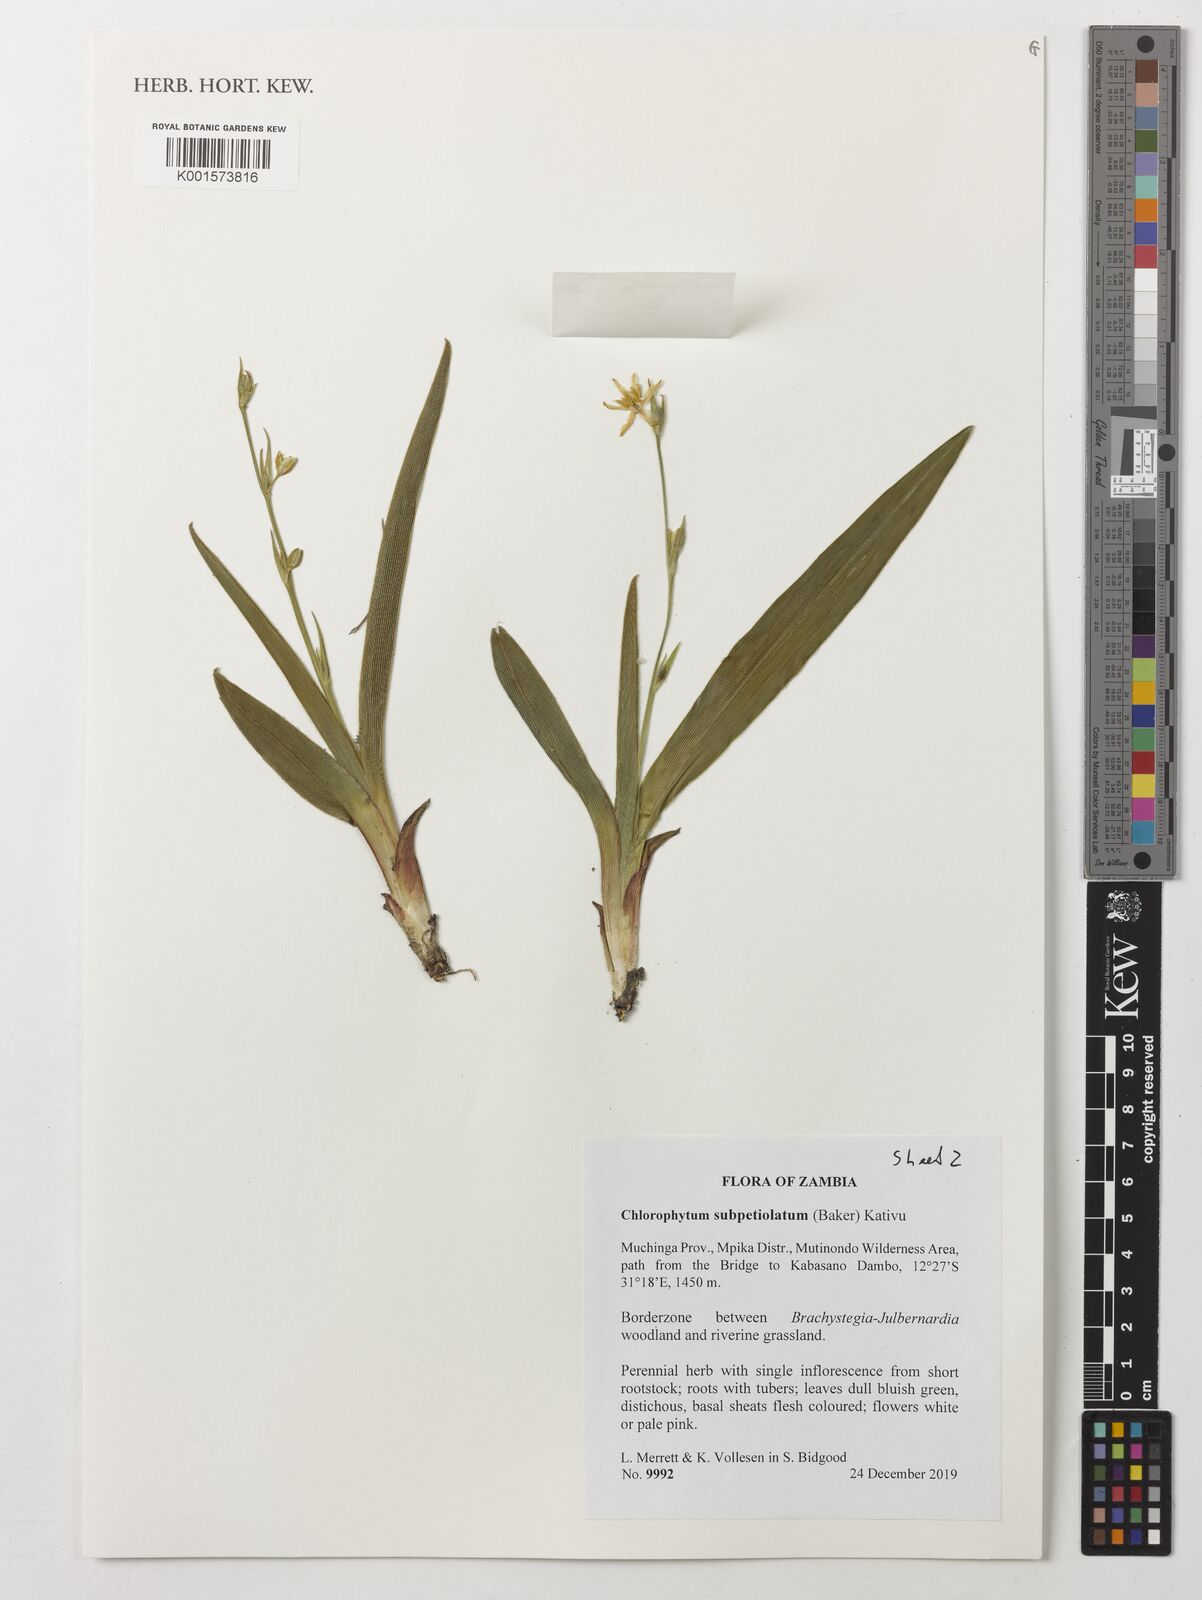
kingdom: Plantae
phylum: Tracheophyta
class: Liliopsida
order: Asparagales
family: Asparagaceae
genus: Chlorophytum
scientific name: Chlorophytum subpetiolatum
